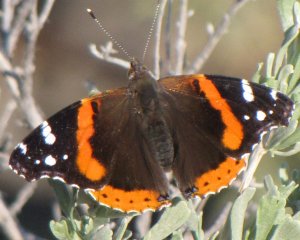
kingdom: Animalia
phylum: Arthropoda
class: Insecta
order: Lepidoptera
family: Nymphalidae
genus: Vanessa
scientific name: Vanessa atalanta
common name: Red Admiral
